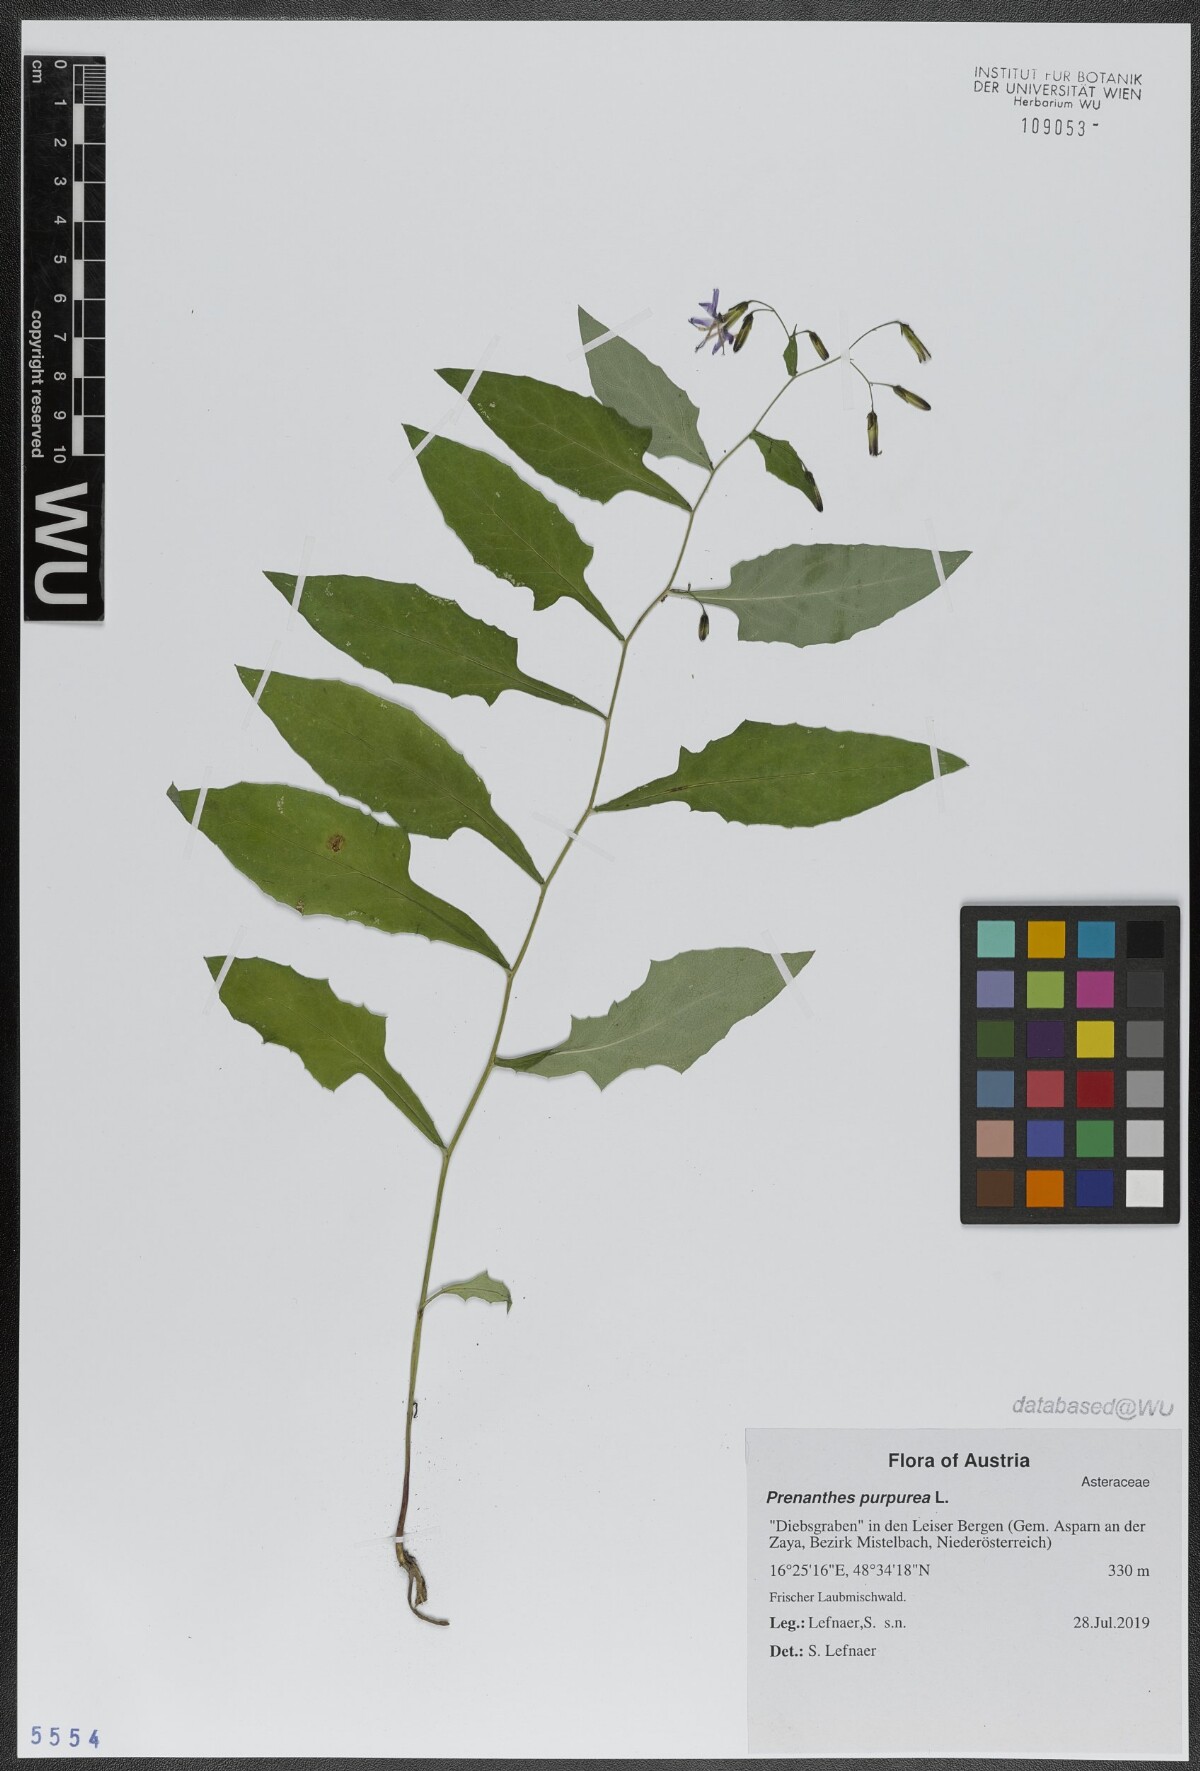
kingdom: Plantae
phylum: Tracheophyta
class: Magnoliopsida
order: Asterales
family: Asteraceae
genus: Prenanthes
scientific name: Prenanthes purpurea
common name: Purple lettuce
